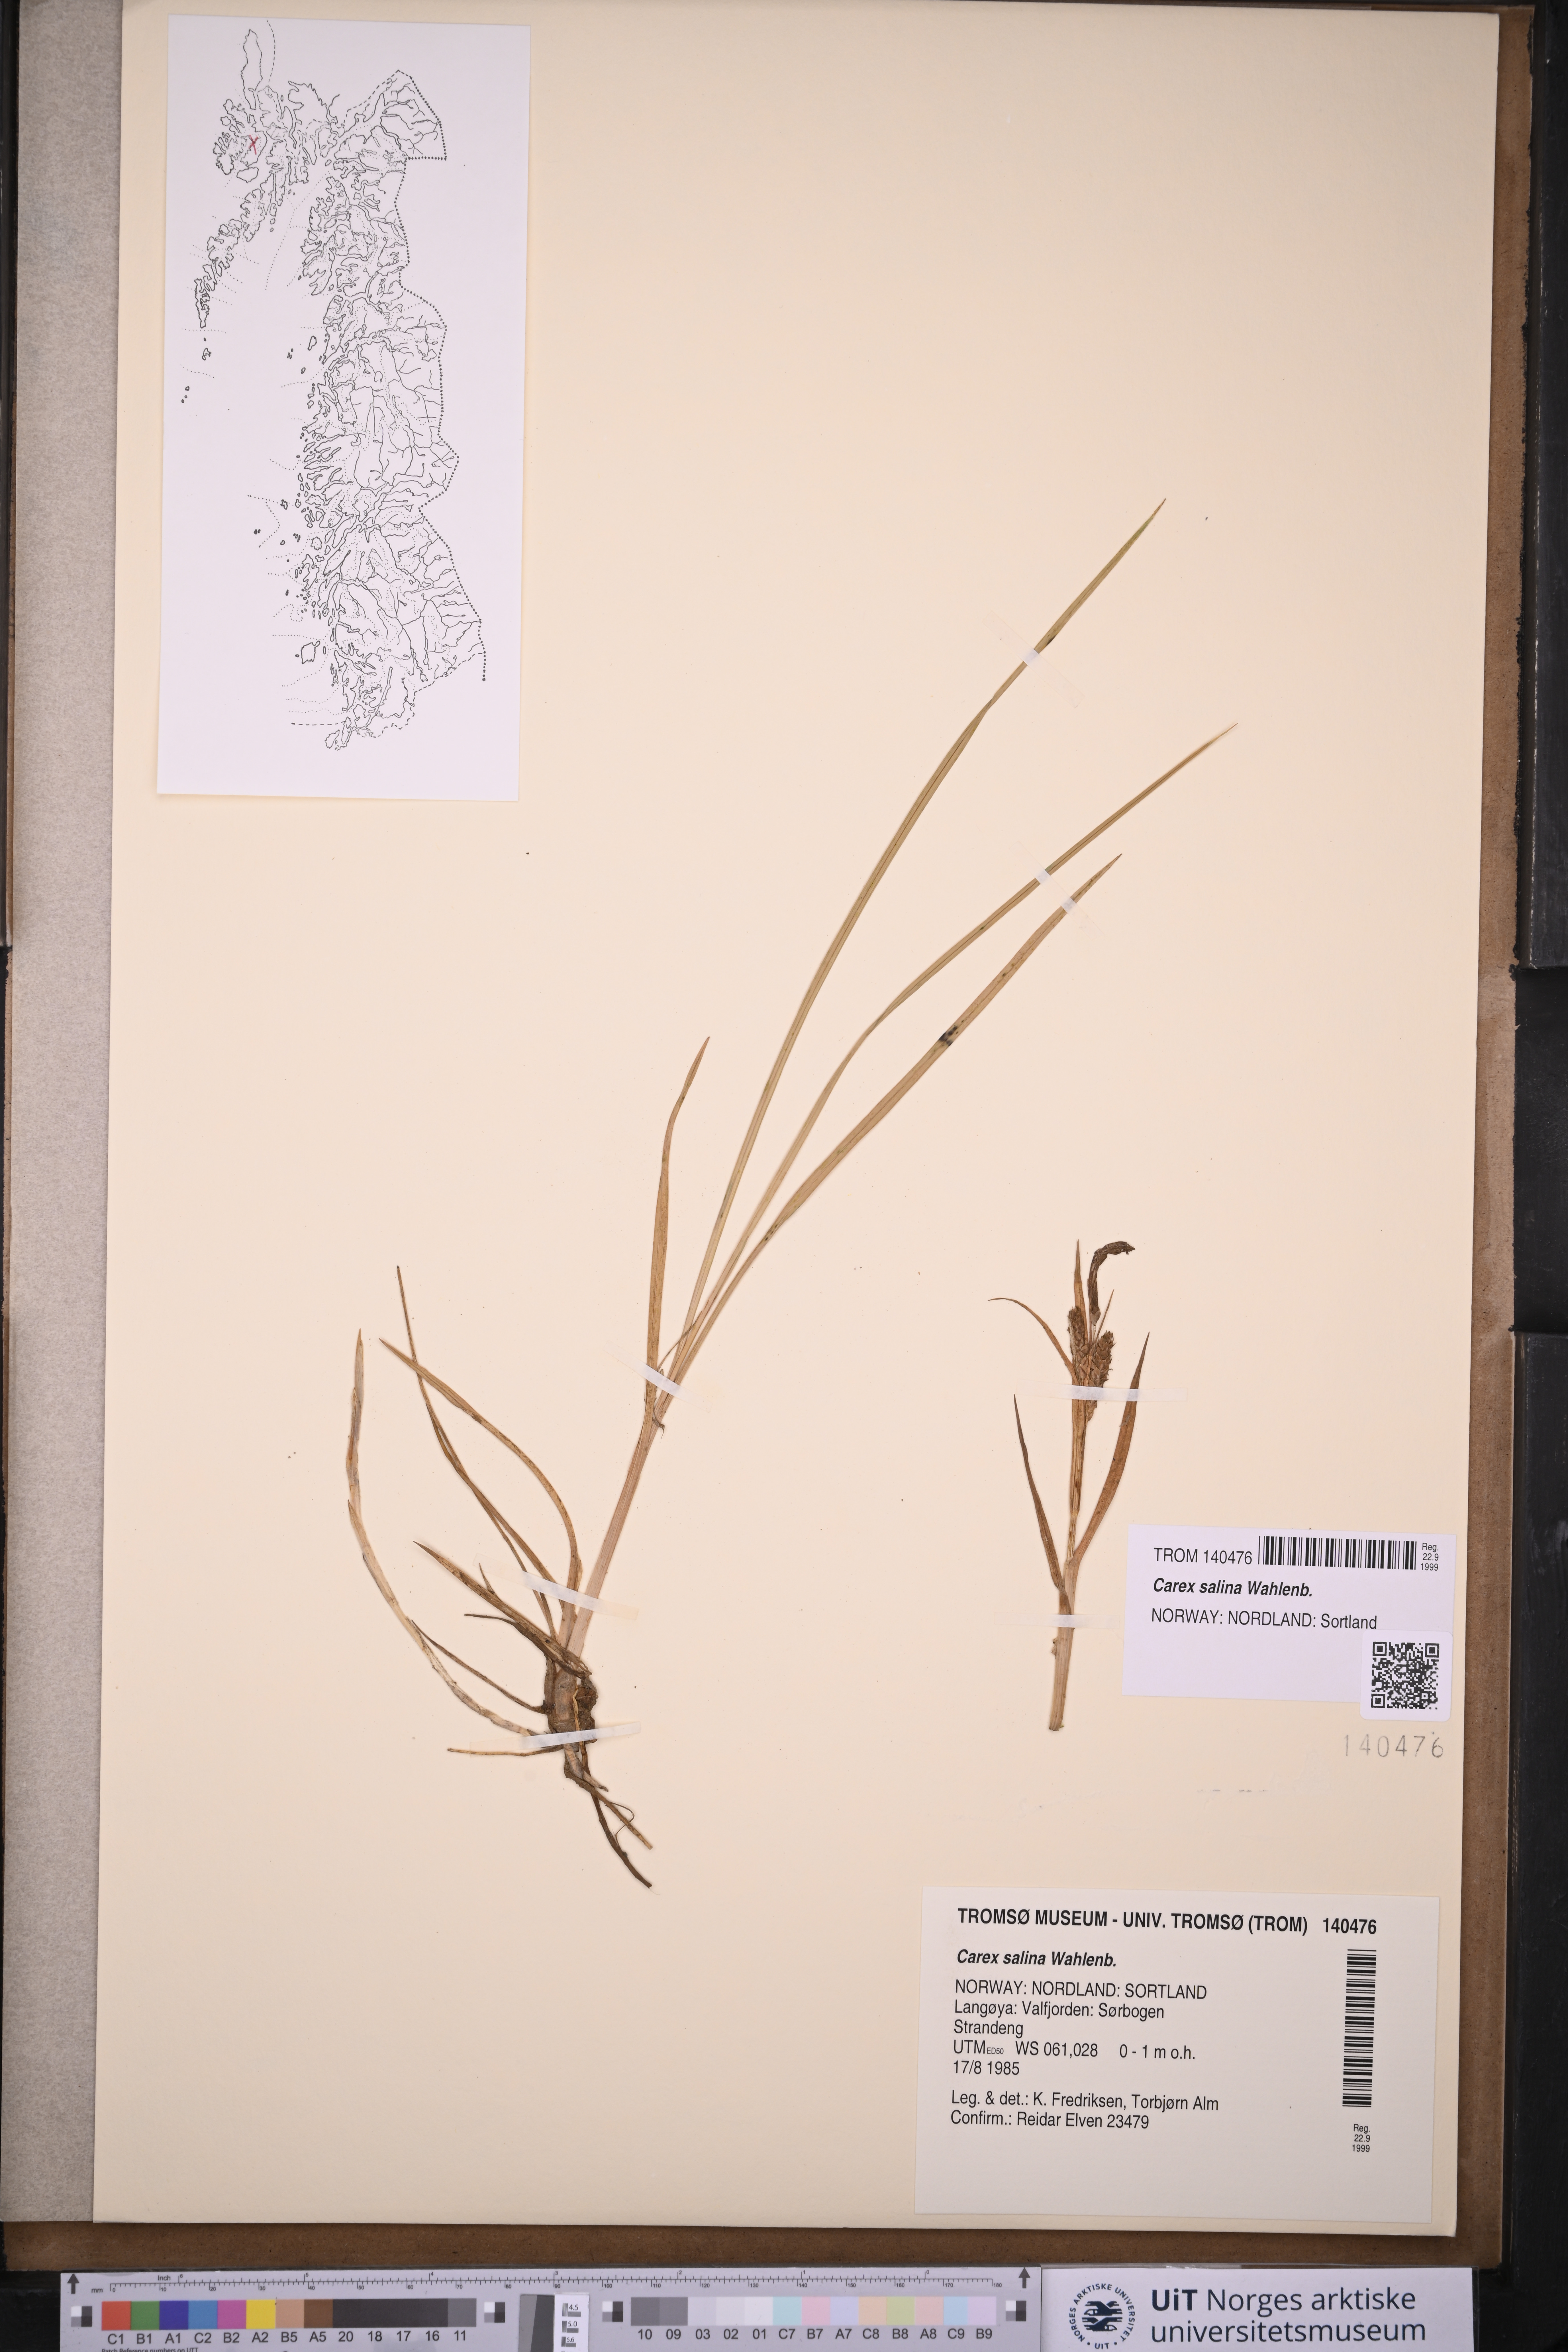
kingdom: Plantae
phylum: Tracheophyta
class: Liliopsida
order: Poales
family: Cyperaceae
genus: Carex
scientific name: Carex salina
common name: Saltmarsh sedge
